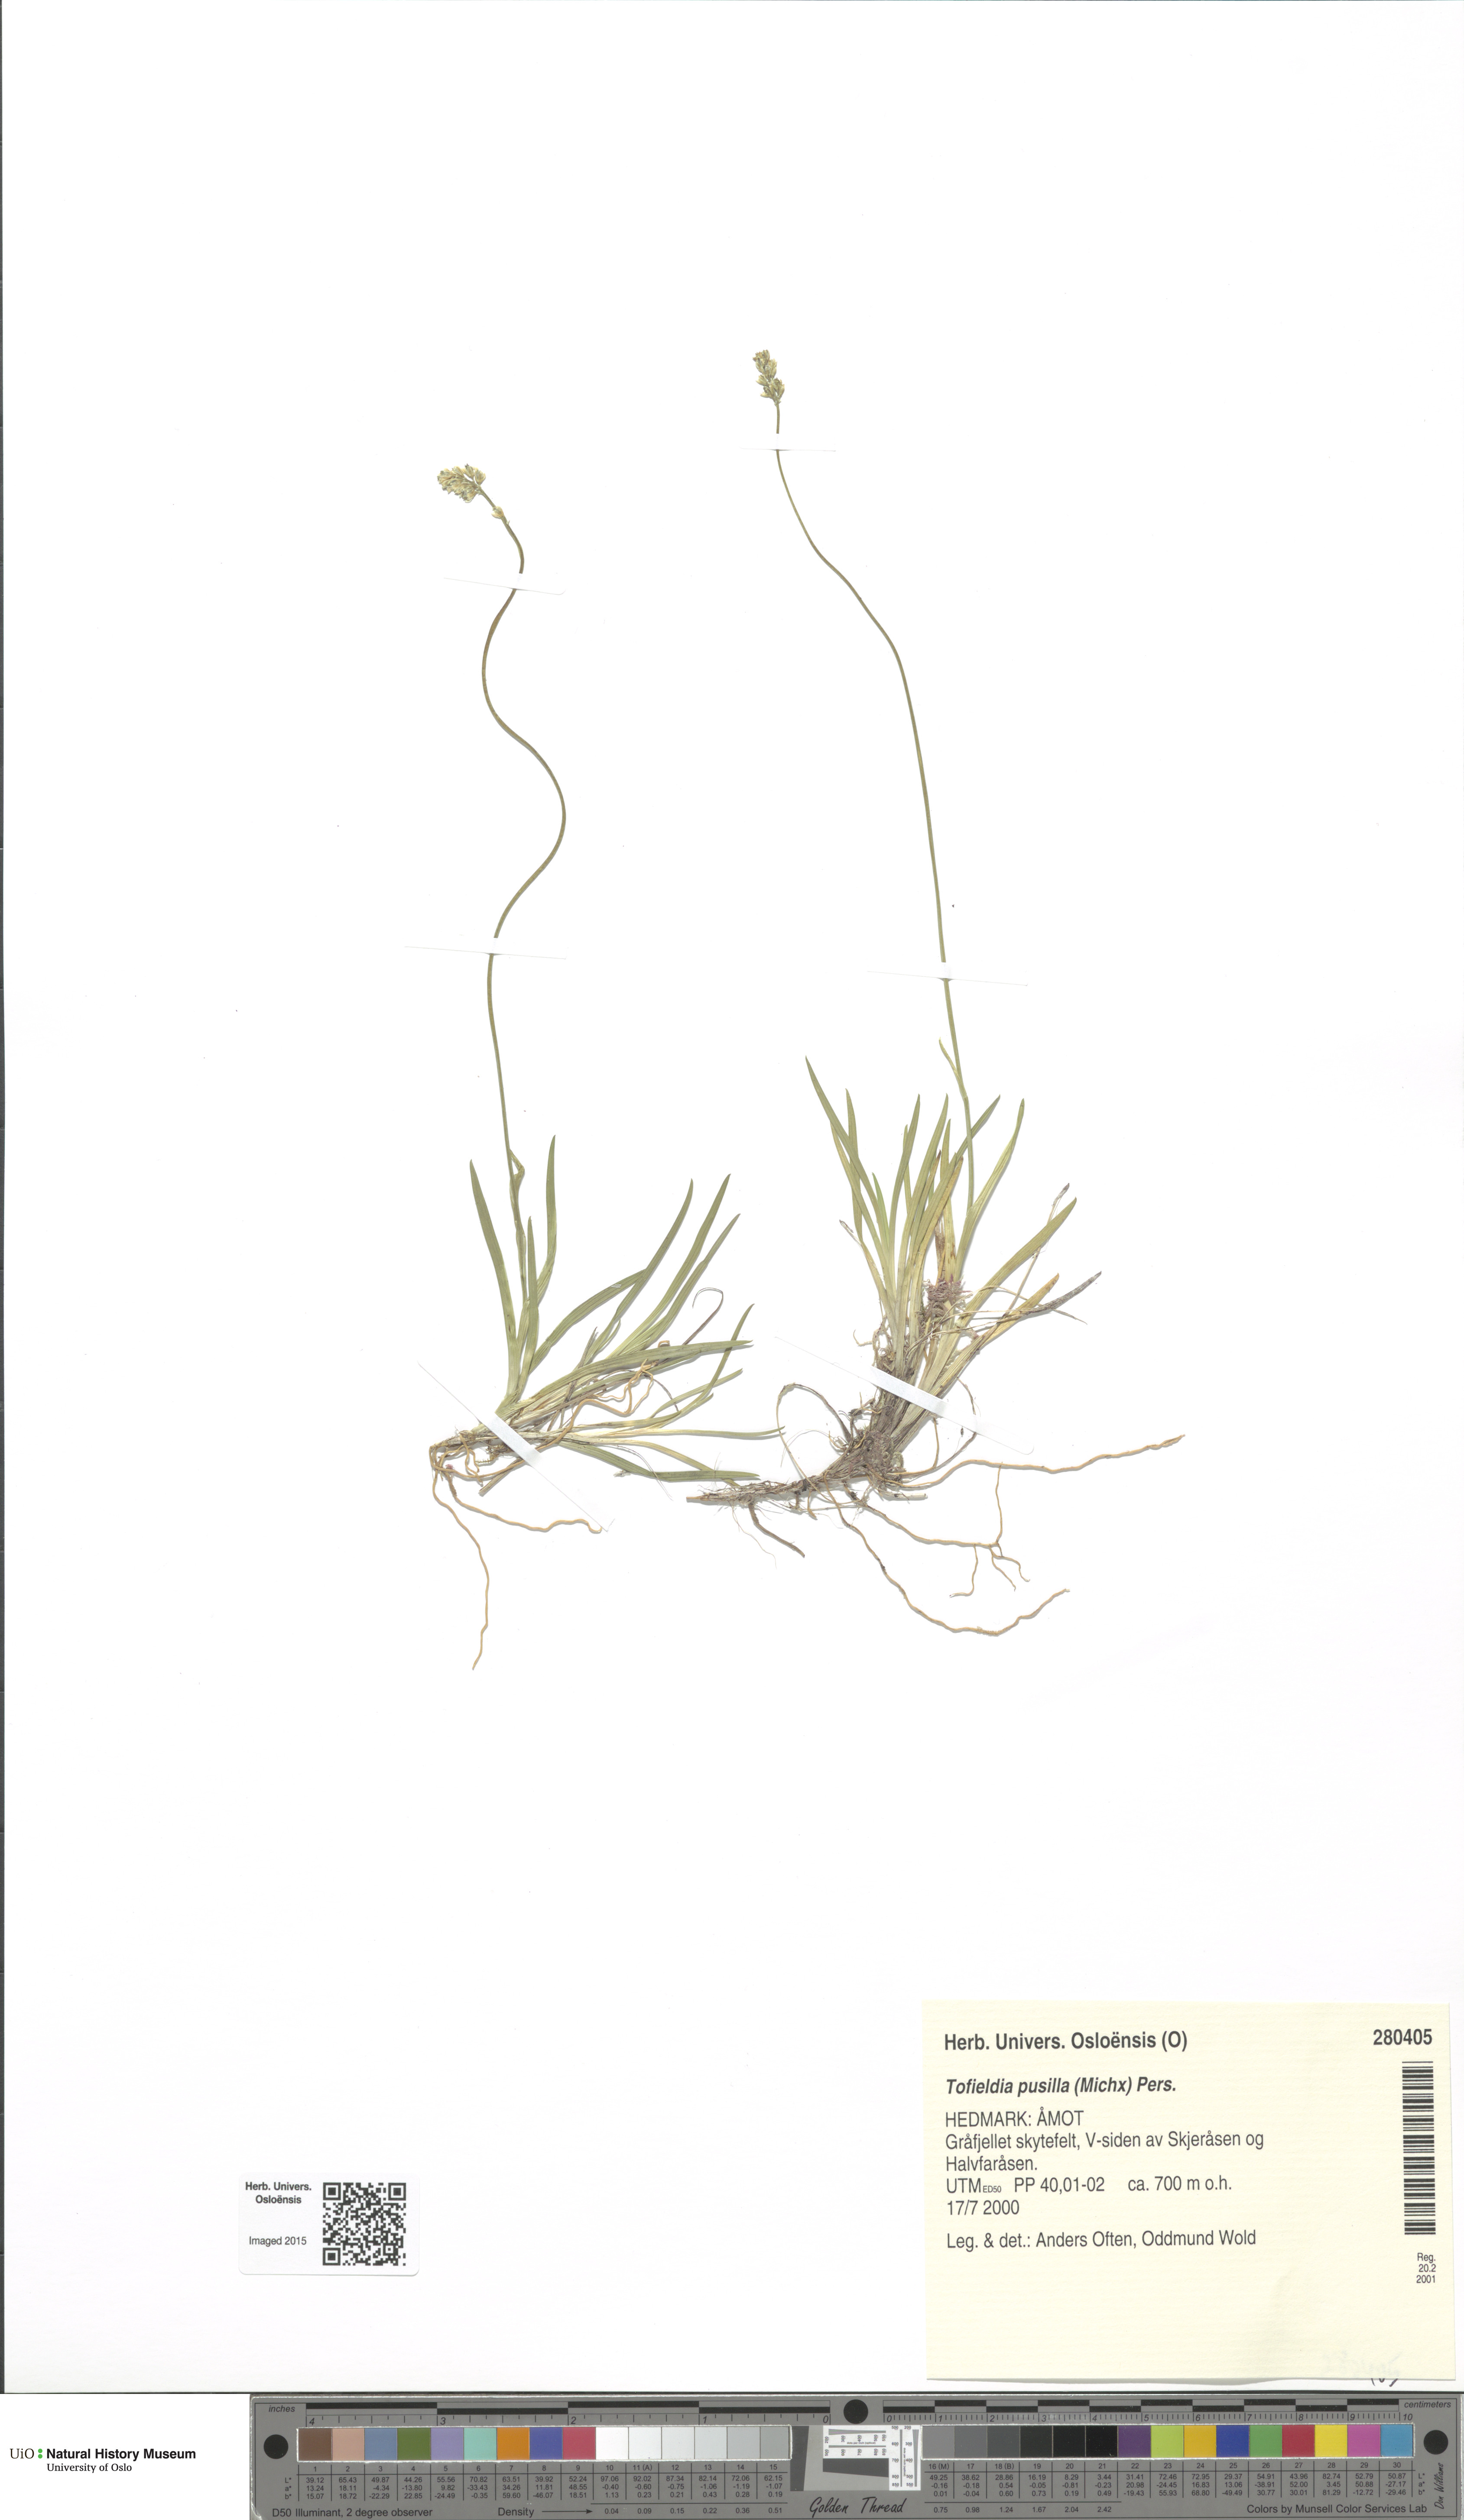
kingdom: Plantae
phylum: Tracheophyta
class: Liliopsida
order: Alismatales
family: Tofieldiaceae
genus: Tofieldia
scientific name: Tofieldia pusilla
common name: Scottish false asphodel
